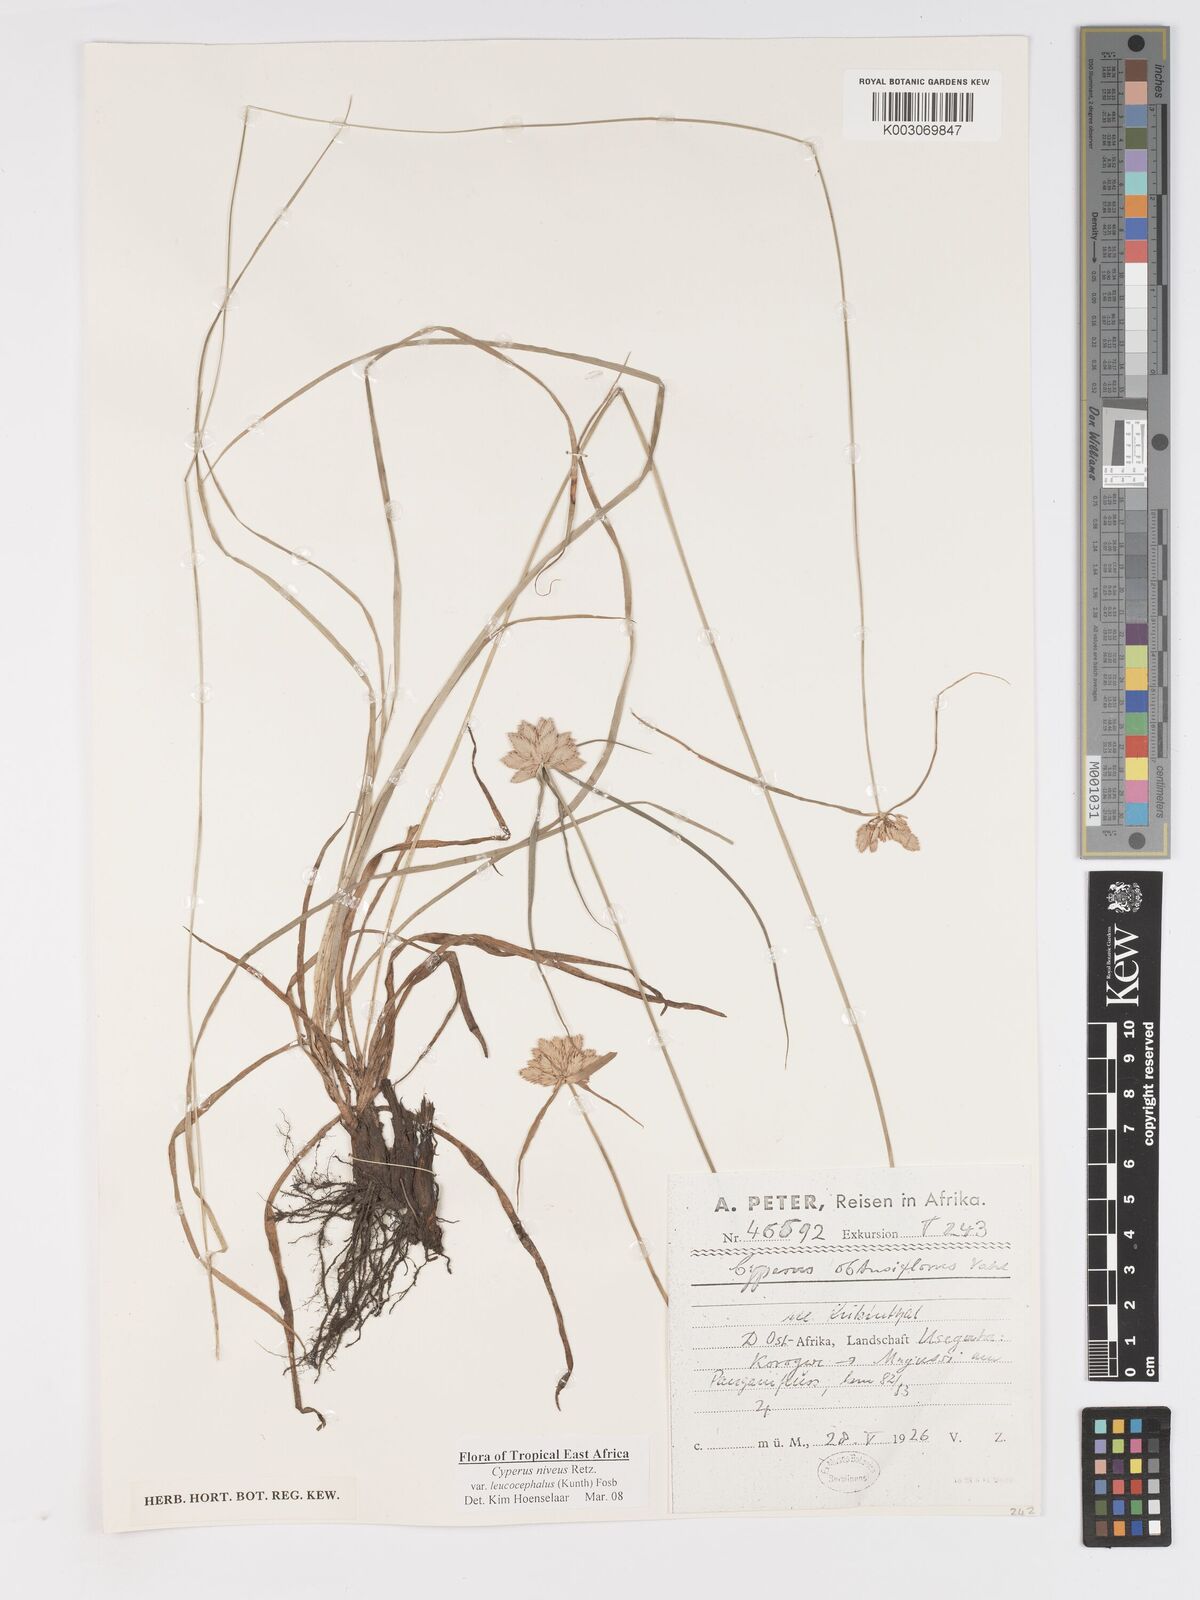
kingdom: Plantae
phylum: Tracheophyta
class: Liliopsida
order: Poales
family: Cyperaceae
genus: Cyperus
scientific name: Cyperus niveus
